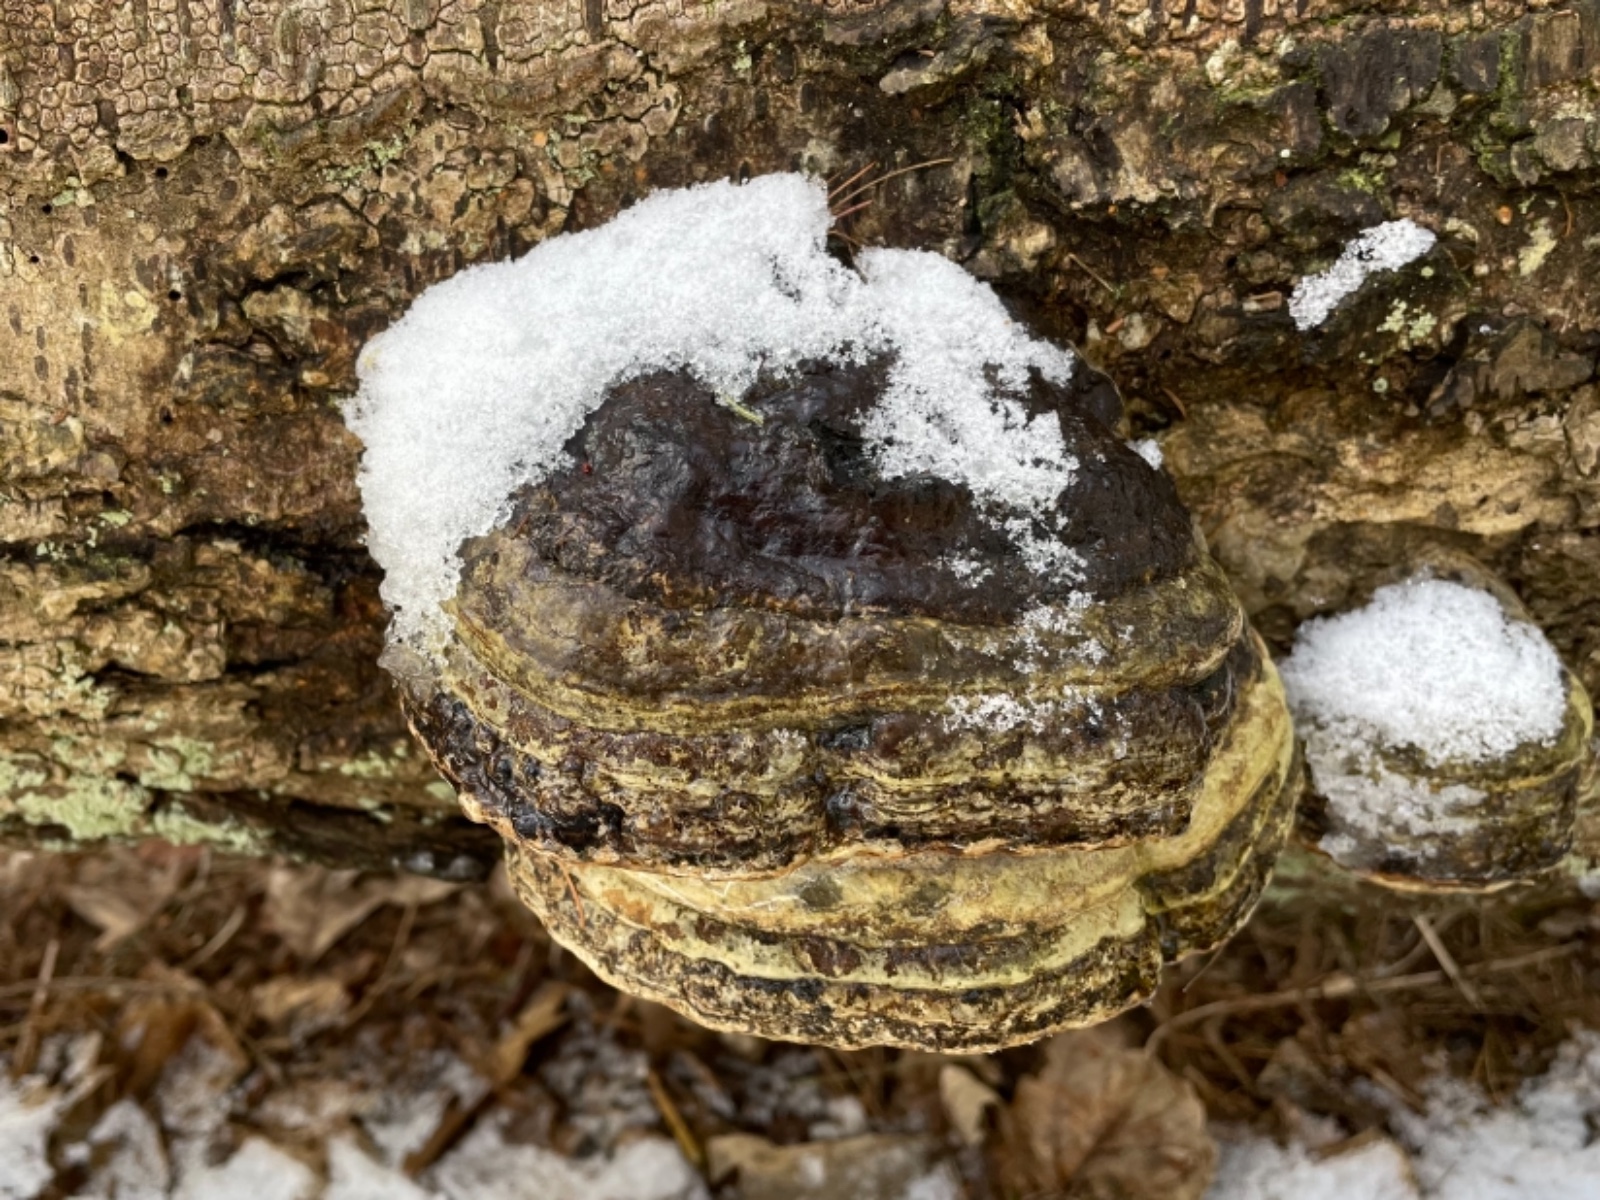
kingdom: Fungi
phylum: Basidiomycota
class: Agaricomycetes
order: Polyporales
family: Polyporaceae
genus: Fomes
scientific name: Fomes
